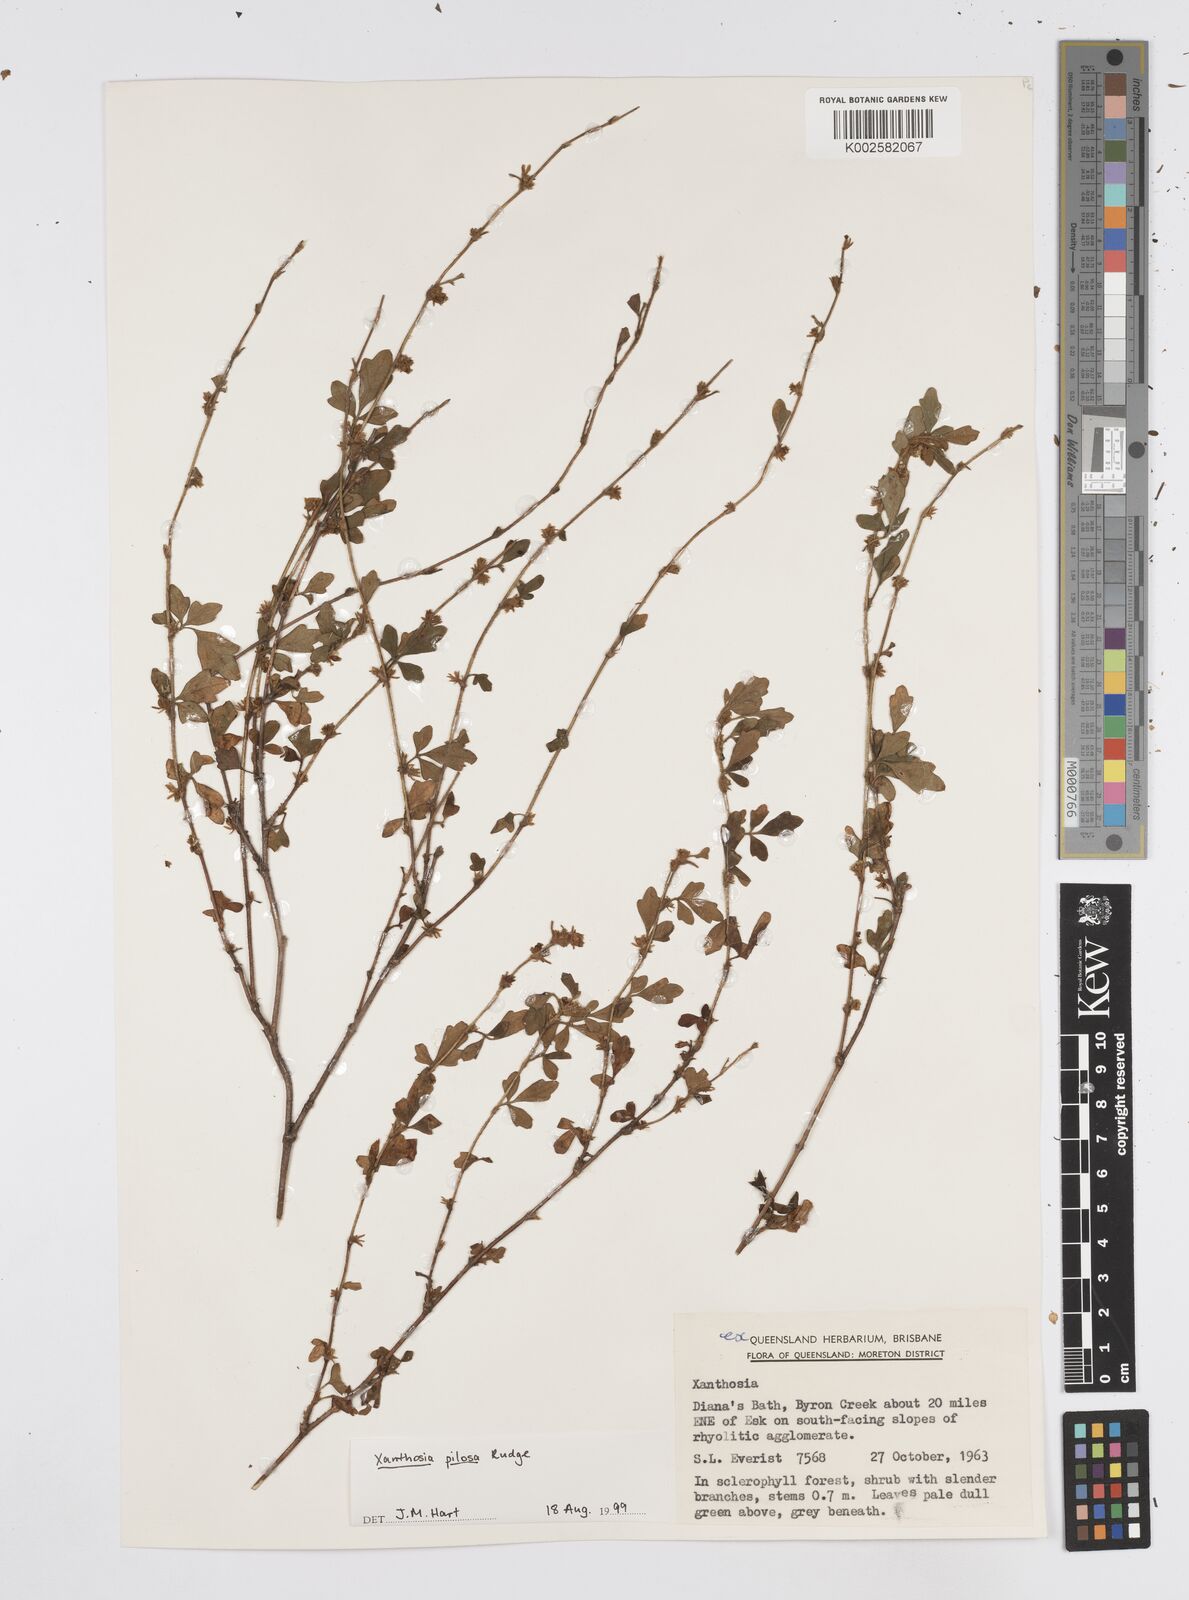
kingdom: Plantae
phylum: Tracheophyta
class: Magnoliopsida
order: Apiales
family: Apiaceae
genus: Xanthosia
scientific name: Xanthosia pilosa
